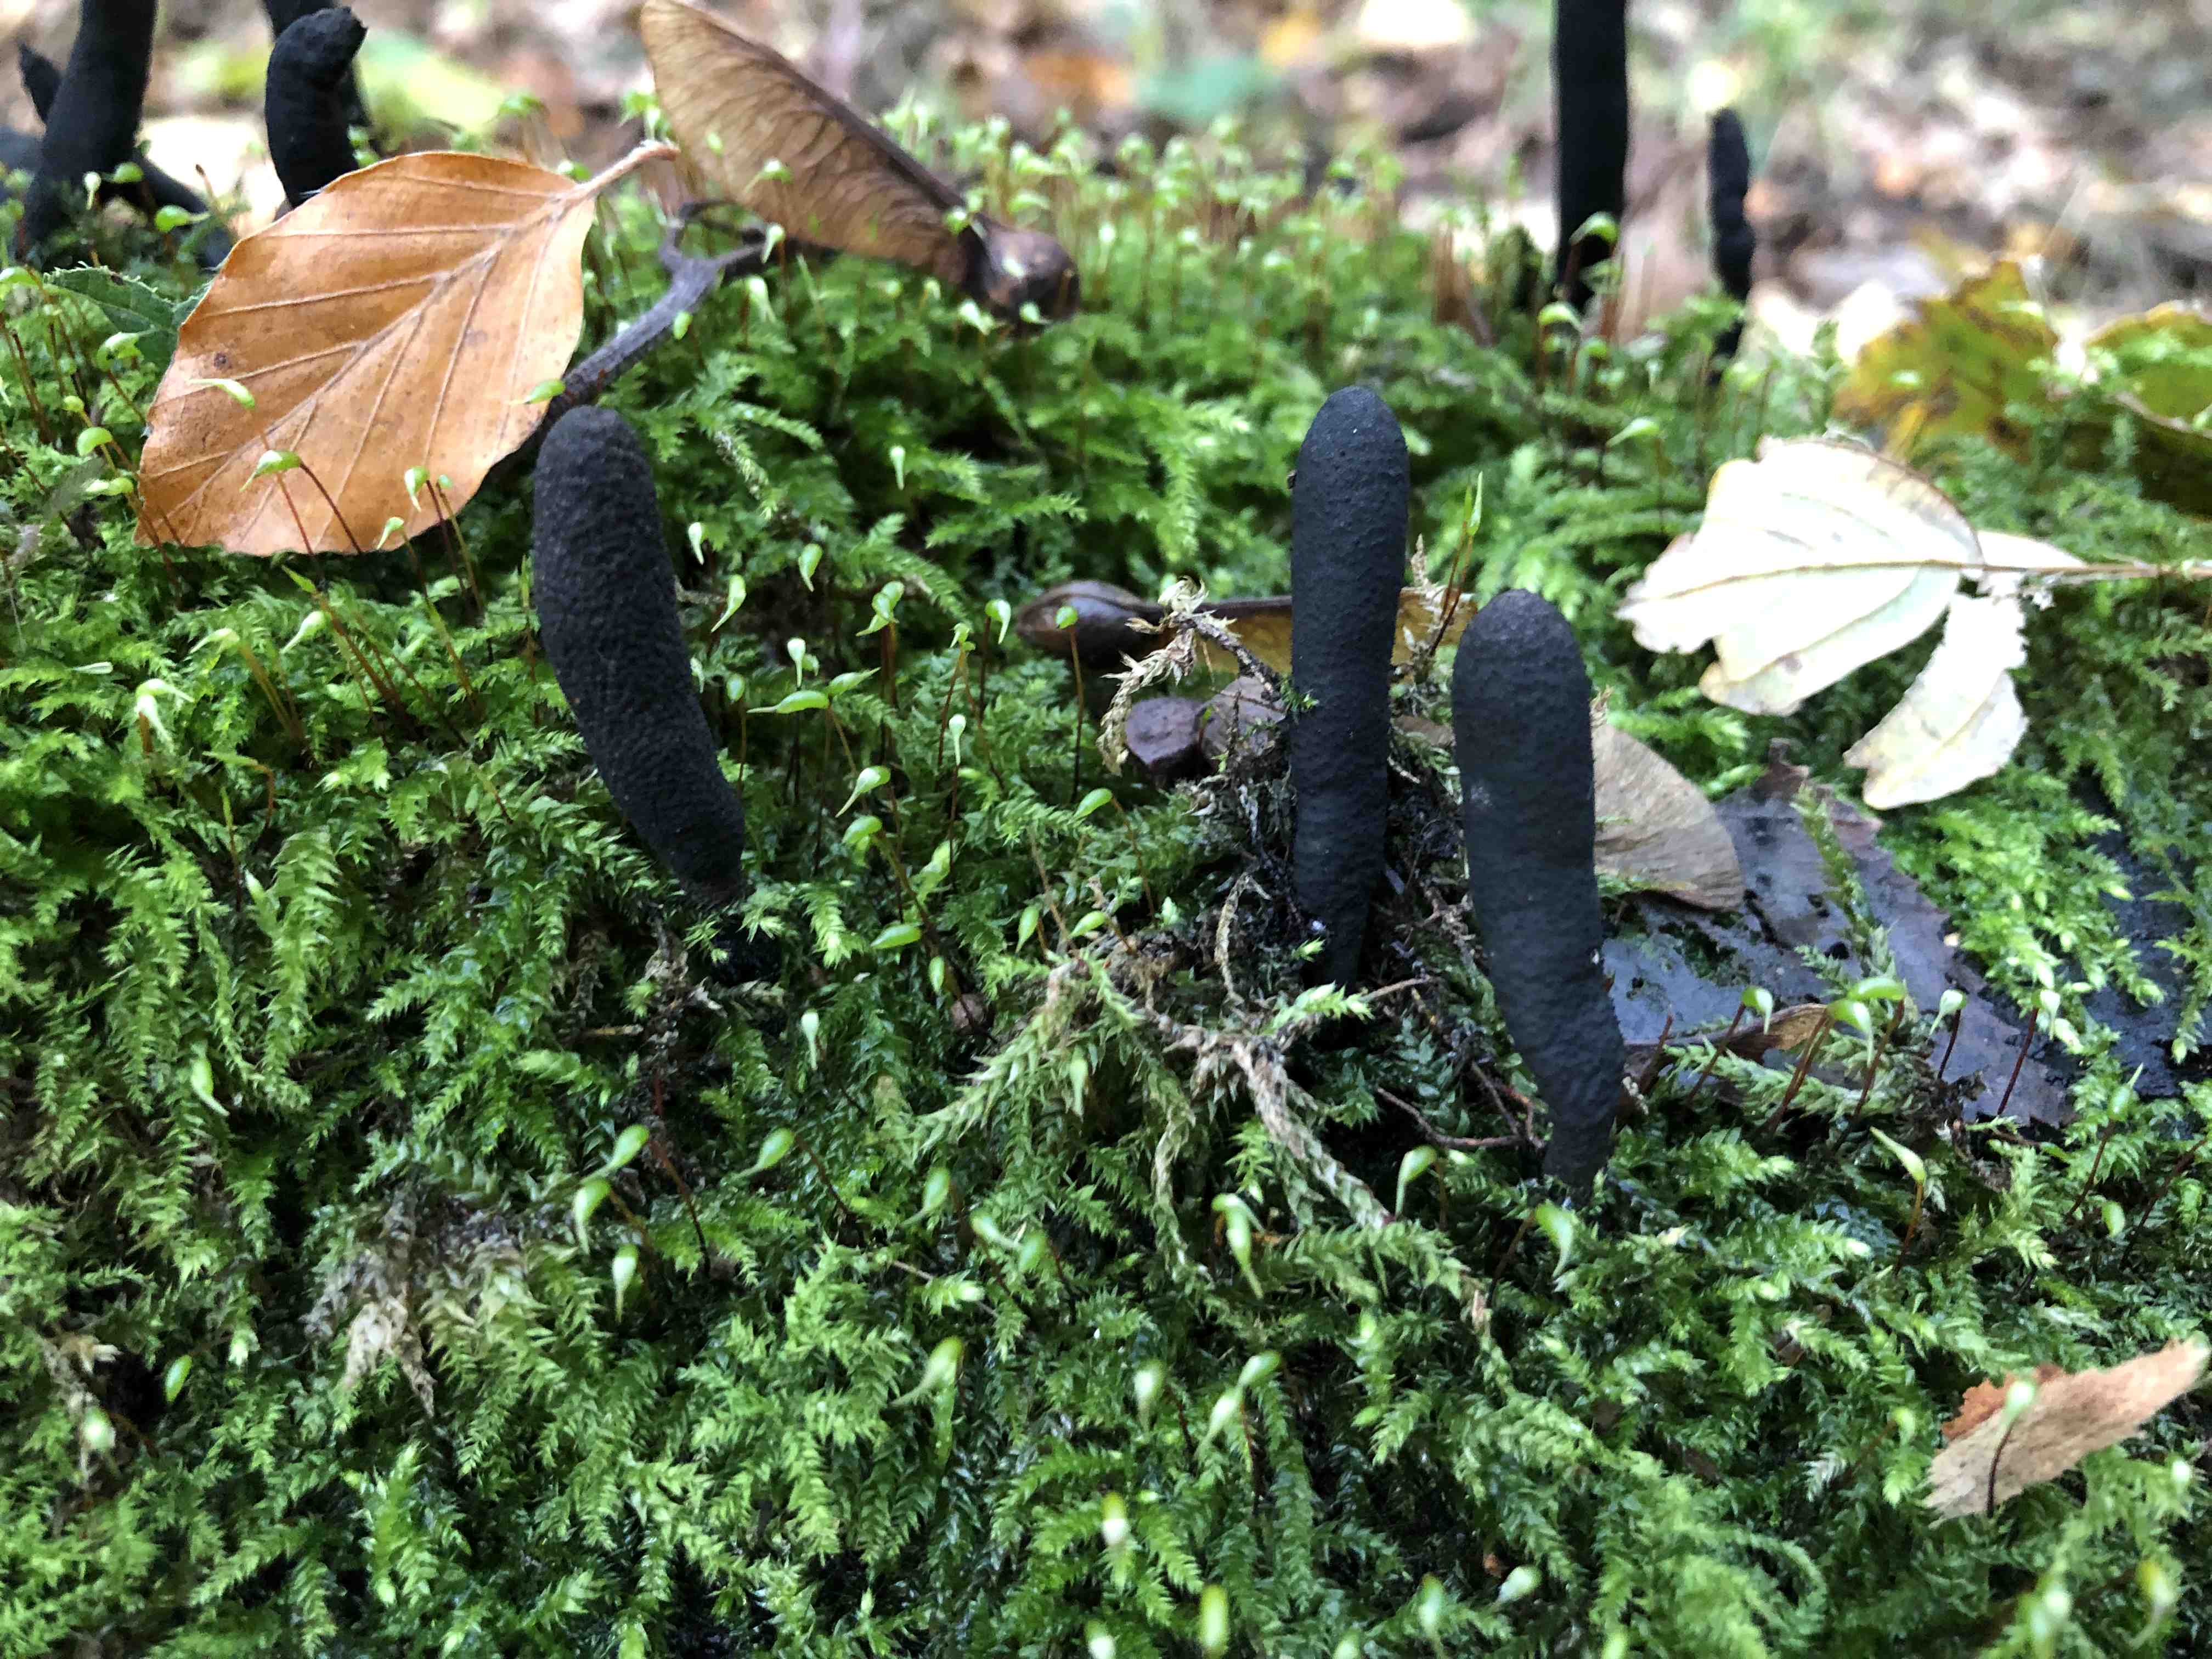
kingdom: Fungi
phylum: Ascomycota
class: Sordariomycetes
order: Xylariales
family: Xylariaceae
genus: Xylaria
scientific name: Xylaria longipes
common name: slank stødsvamp
